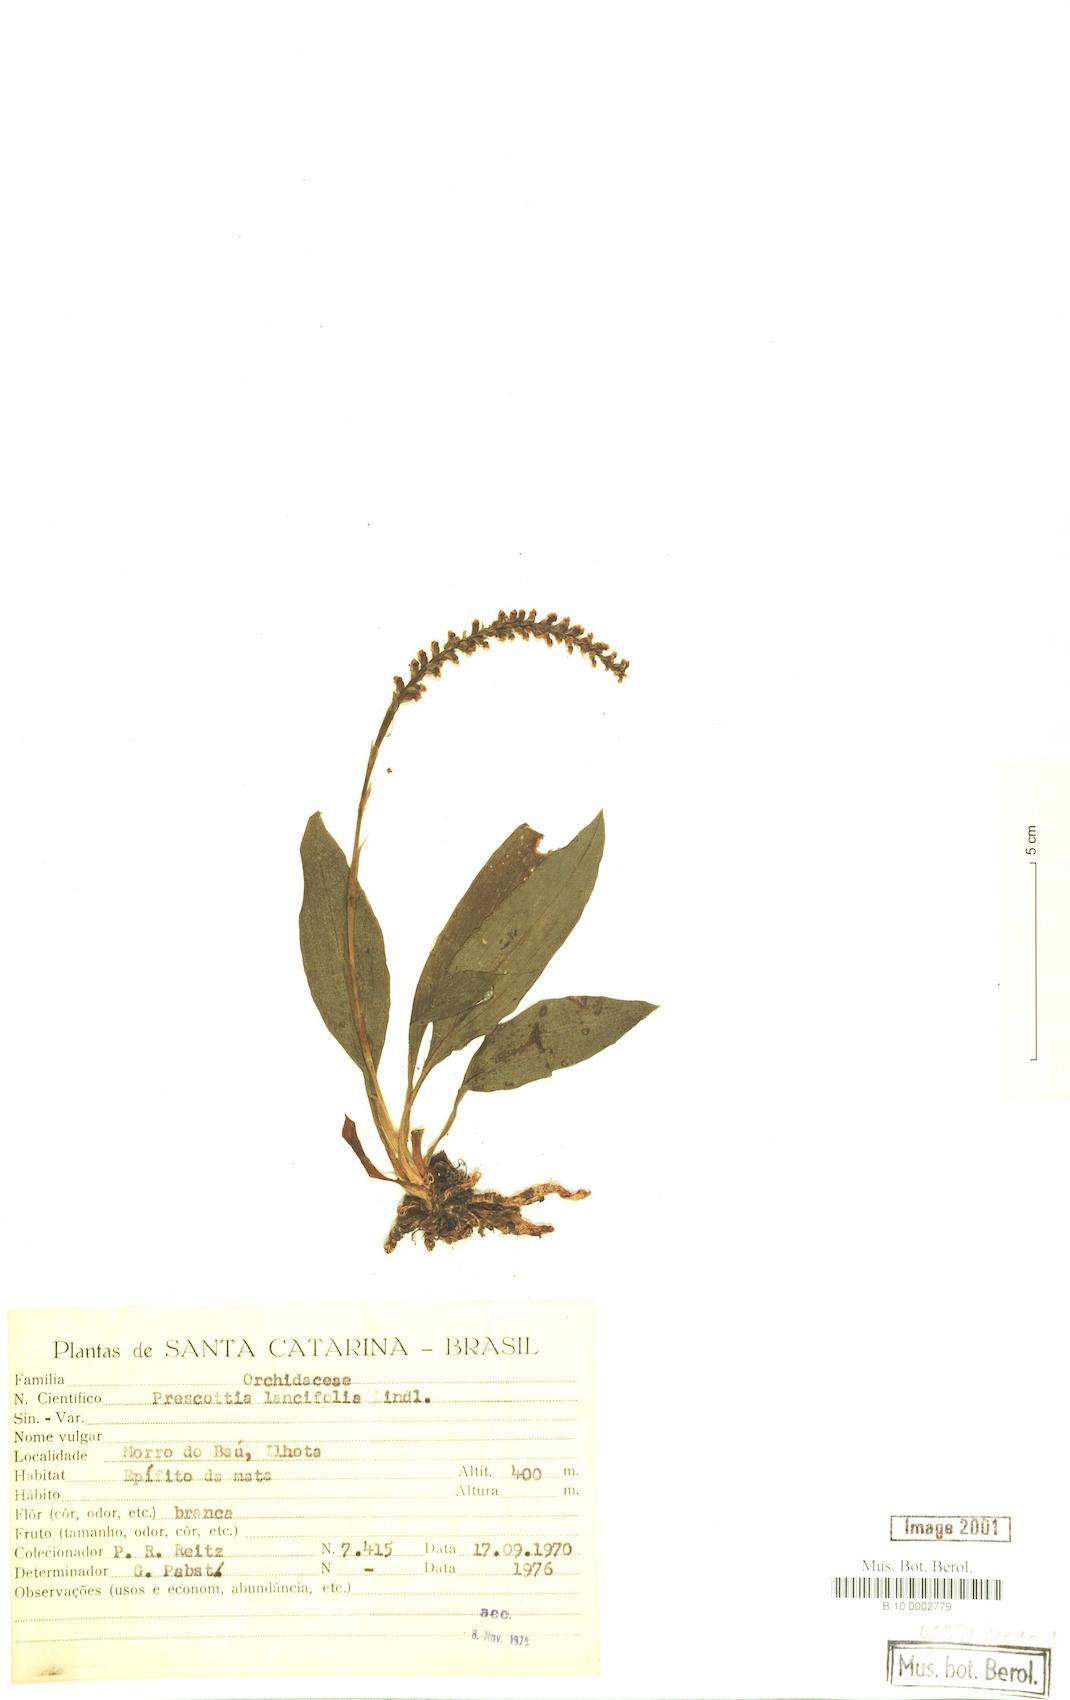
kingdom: Plantae
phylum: Tracheophyta
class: Liliopsida
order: Asparagales
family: Orchidaceae
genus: Prescottia
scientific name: Prescottia lancifolia
